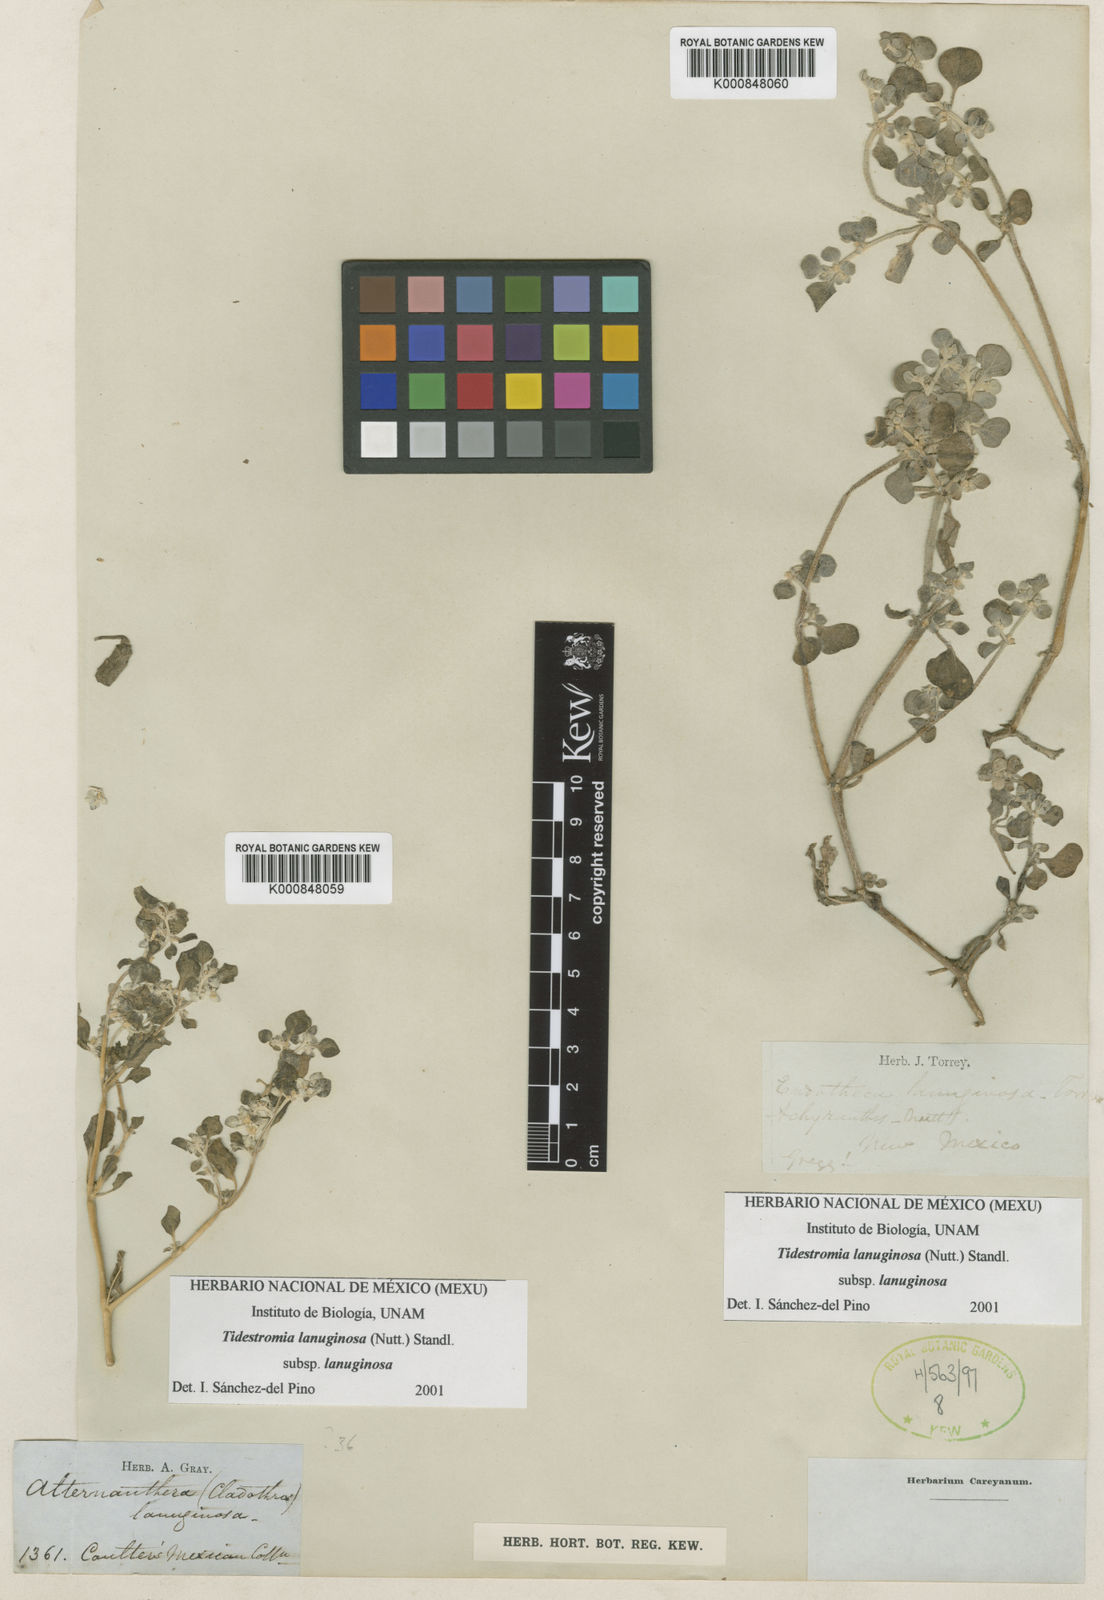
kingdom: Plantae
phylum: Tracheophyta
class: Magnoliopsida
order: Caryophyllales
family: Amaranthaceae
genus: Tidestromia
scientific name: Tidestromia lanuginosa
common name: Woolly tidestromia
